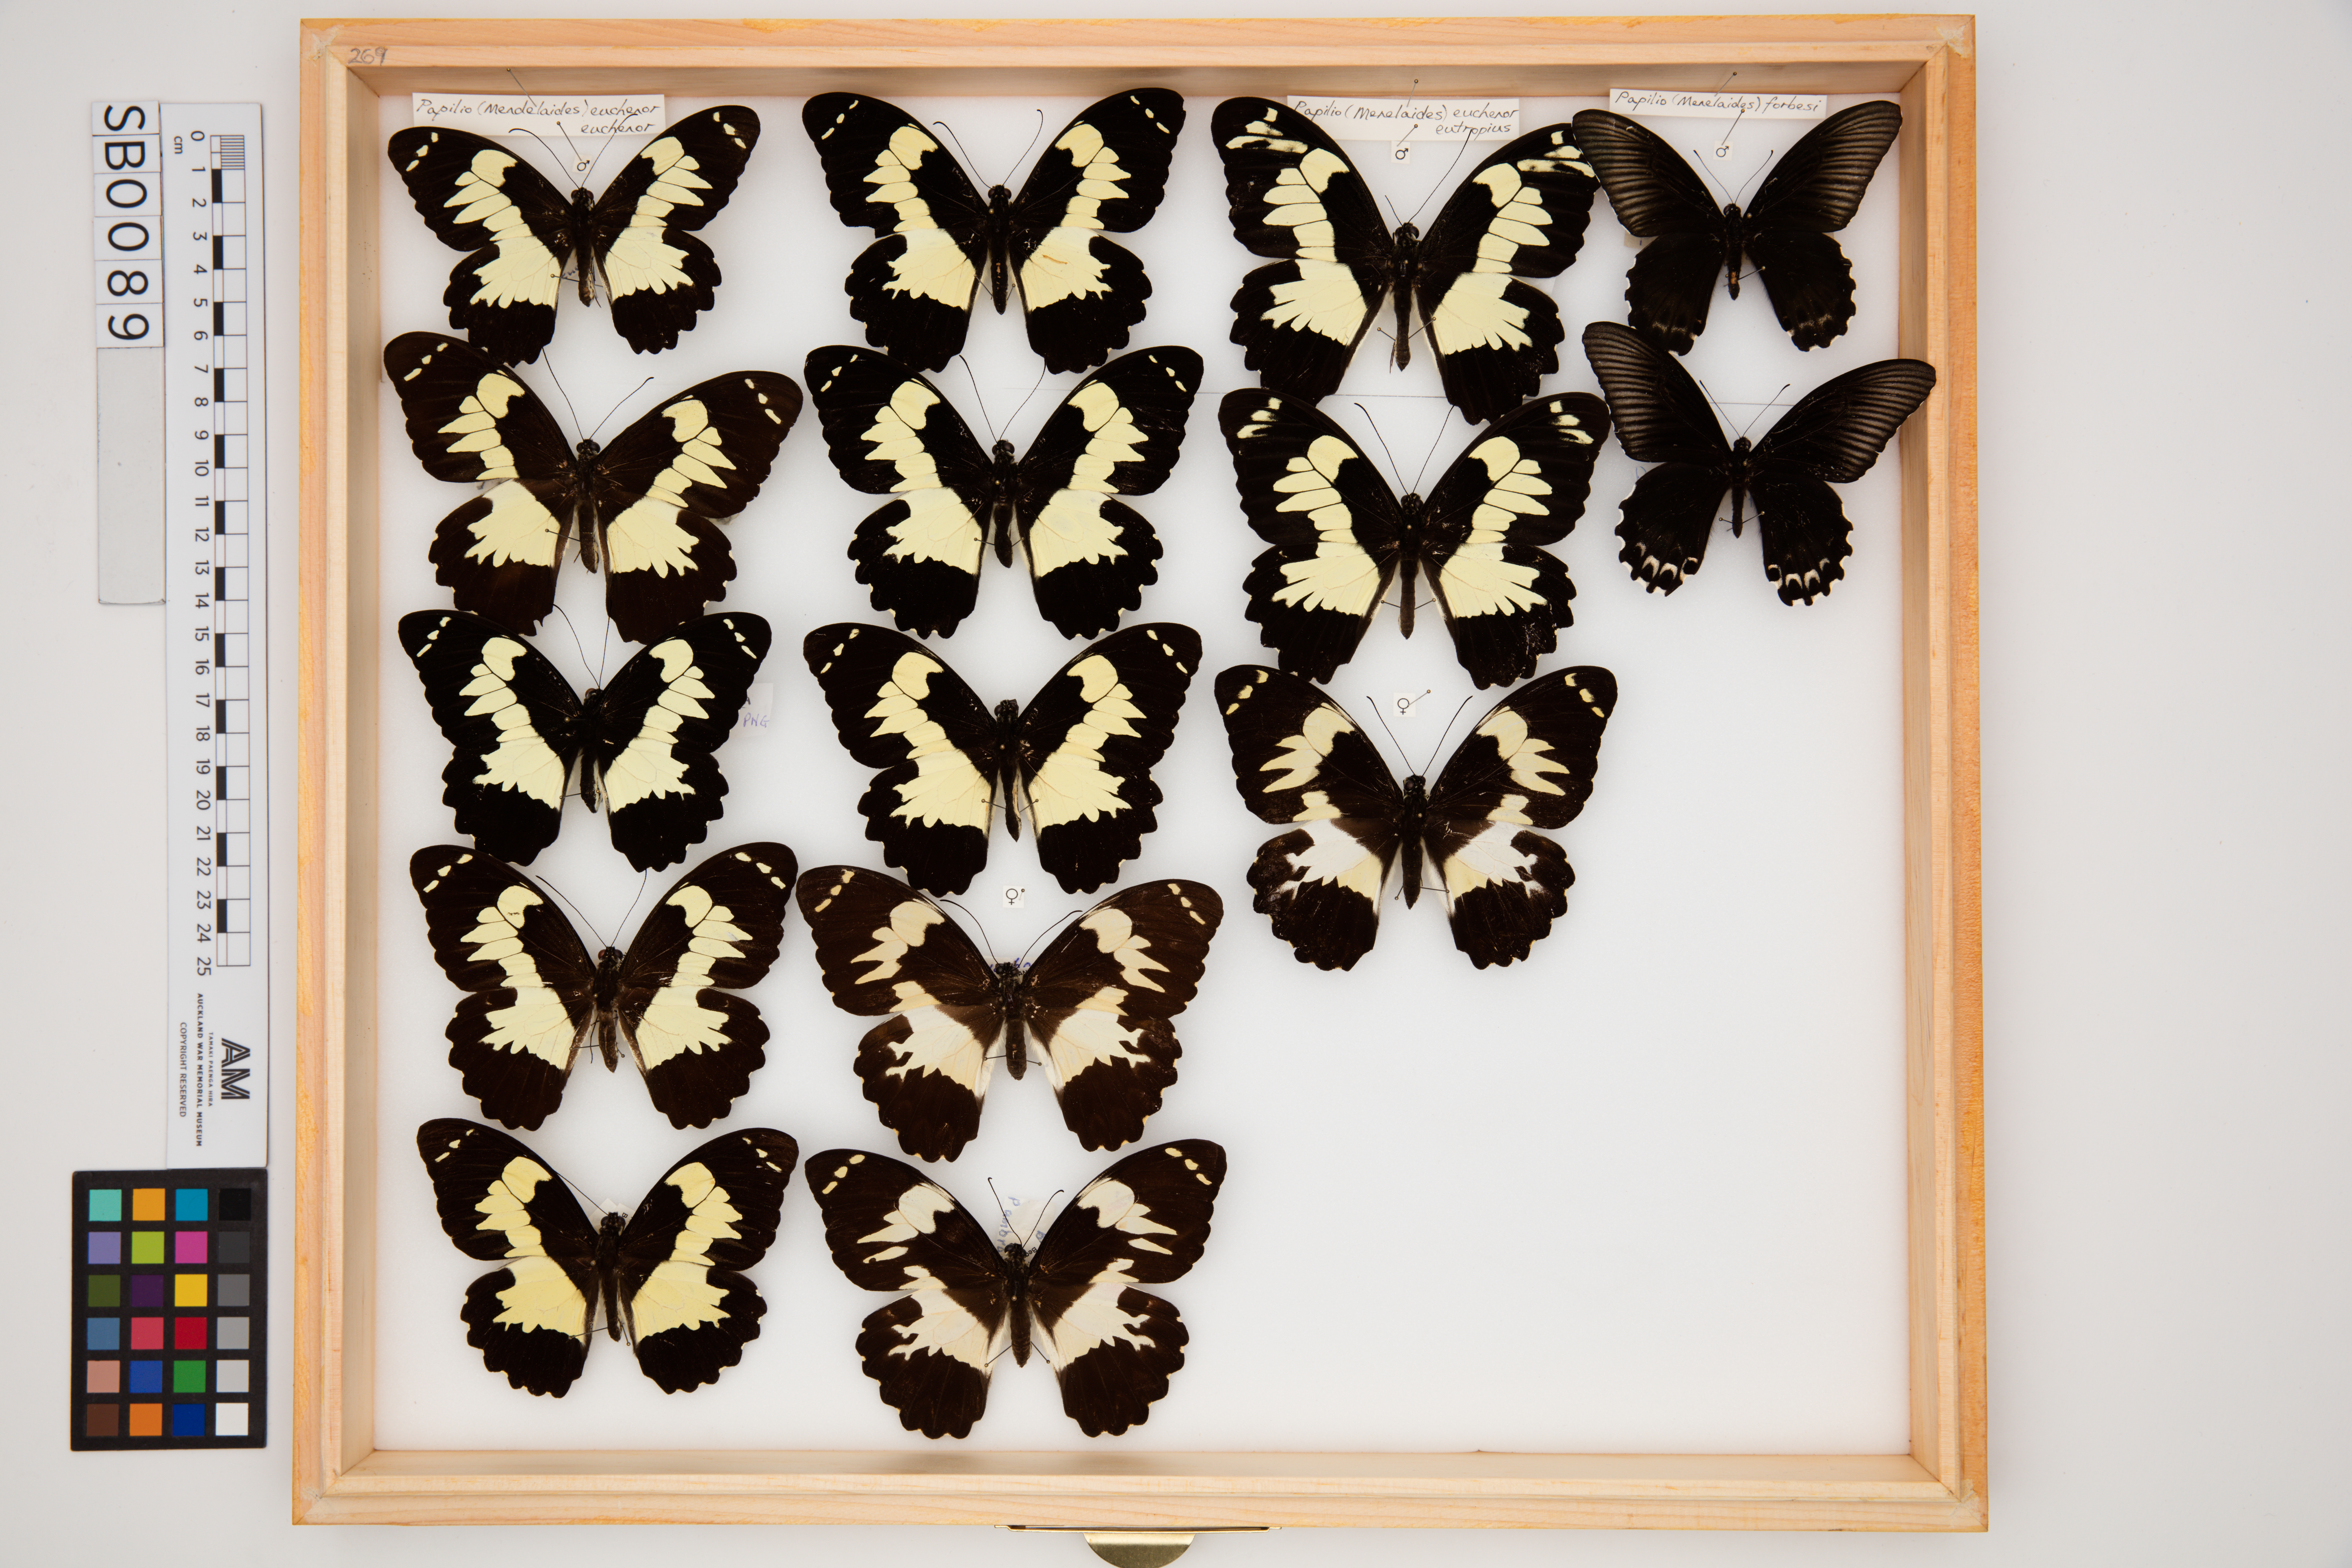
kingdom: Animalia
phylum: Arthropoda
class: Insecta
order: Lepidoptera
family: Papilionidae
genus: Papilio
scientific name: Papilio forbesi
